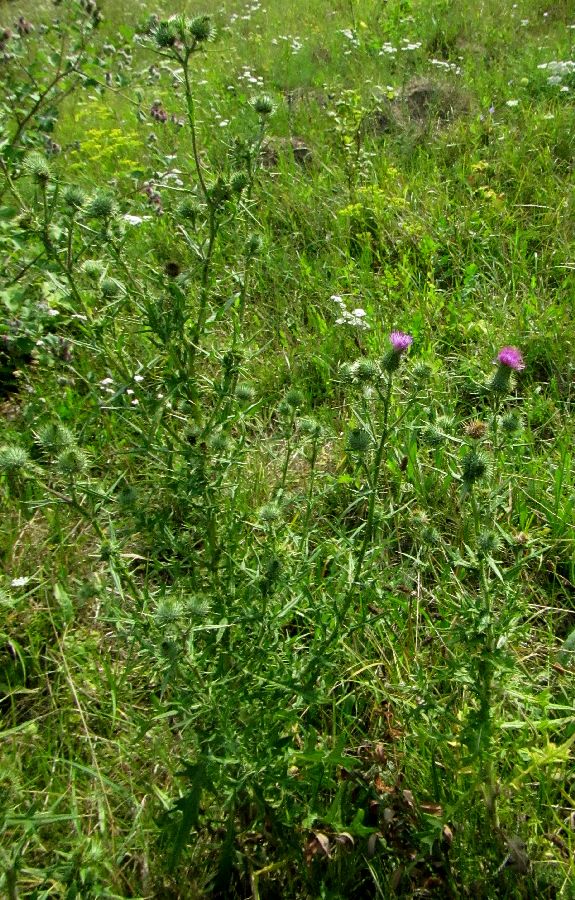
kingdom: Plantae
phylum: Tracheophyta
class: Magnoliopsida
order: Asterales
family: Asteraceae
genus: Cirsium
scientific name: Cirsium vulgare
